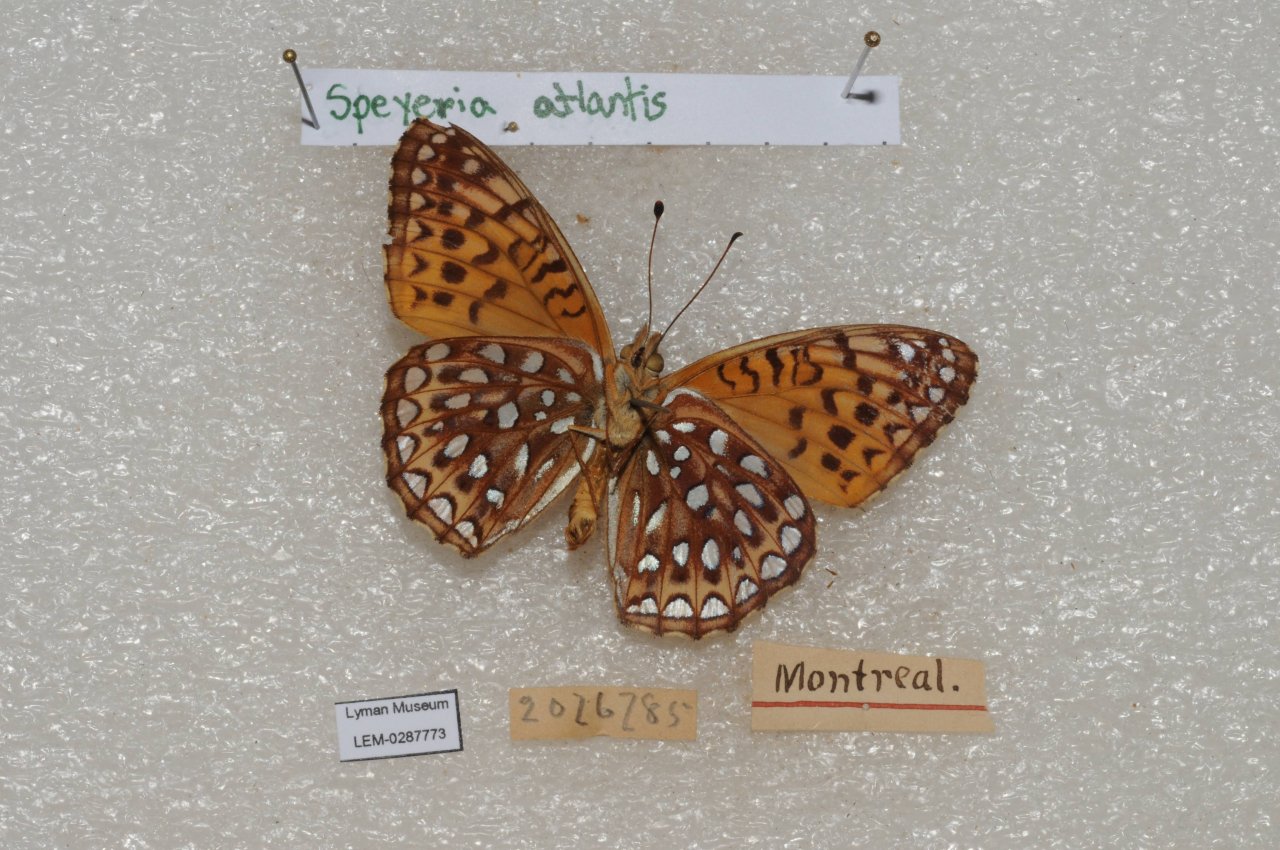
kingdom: Animalia
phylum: Arthropoda
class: Insecta
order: Lepidoptera
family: Nymphalidae
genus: Speyeria
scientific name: Speyeria atlantis
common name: Atlantis Fritillary
